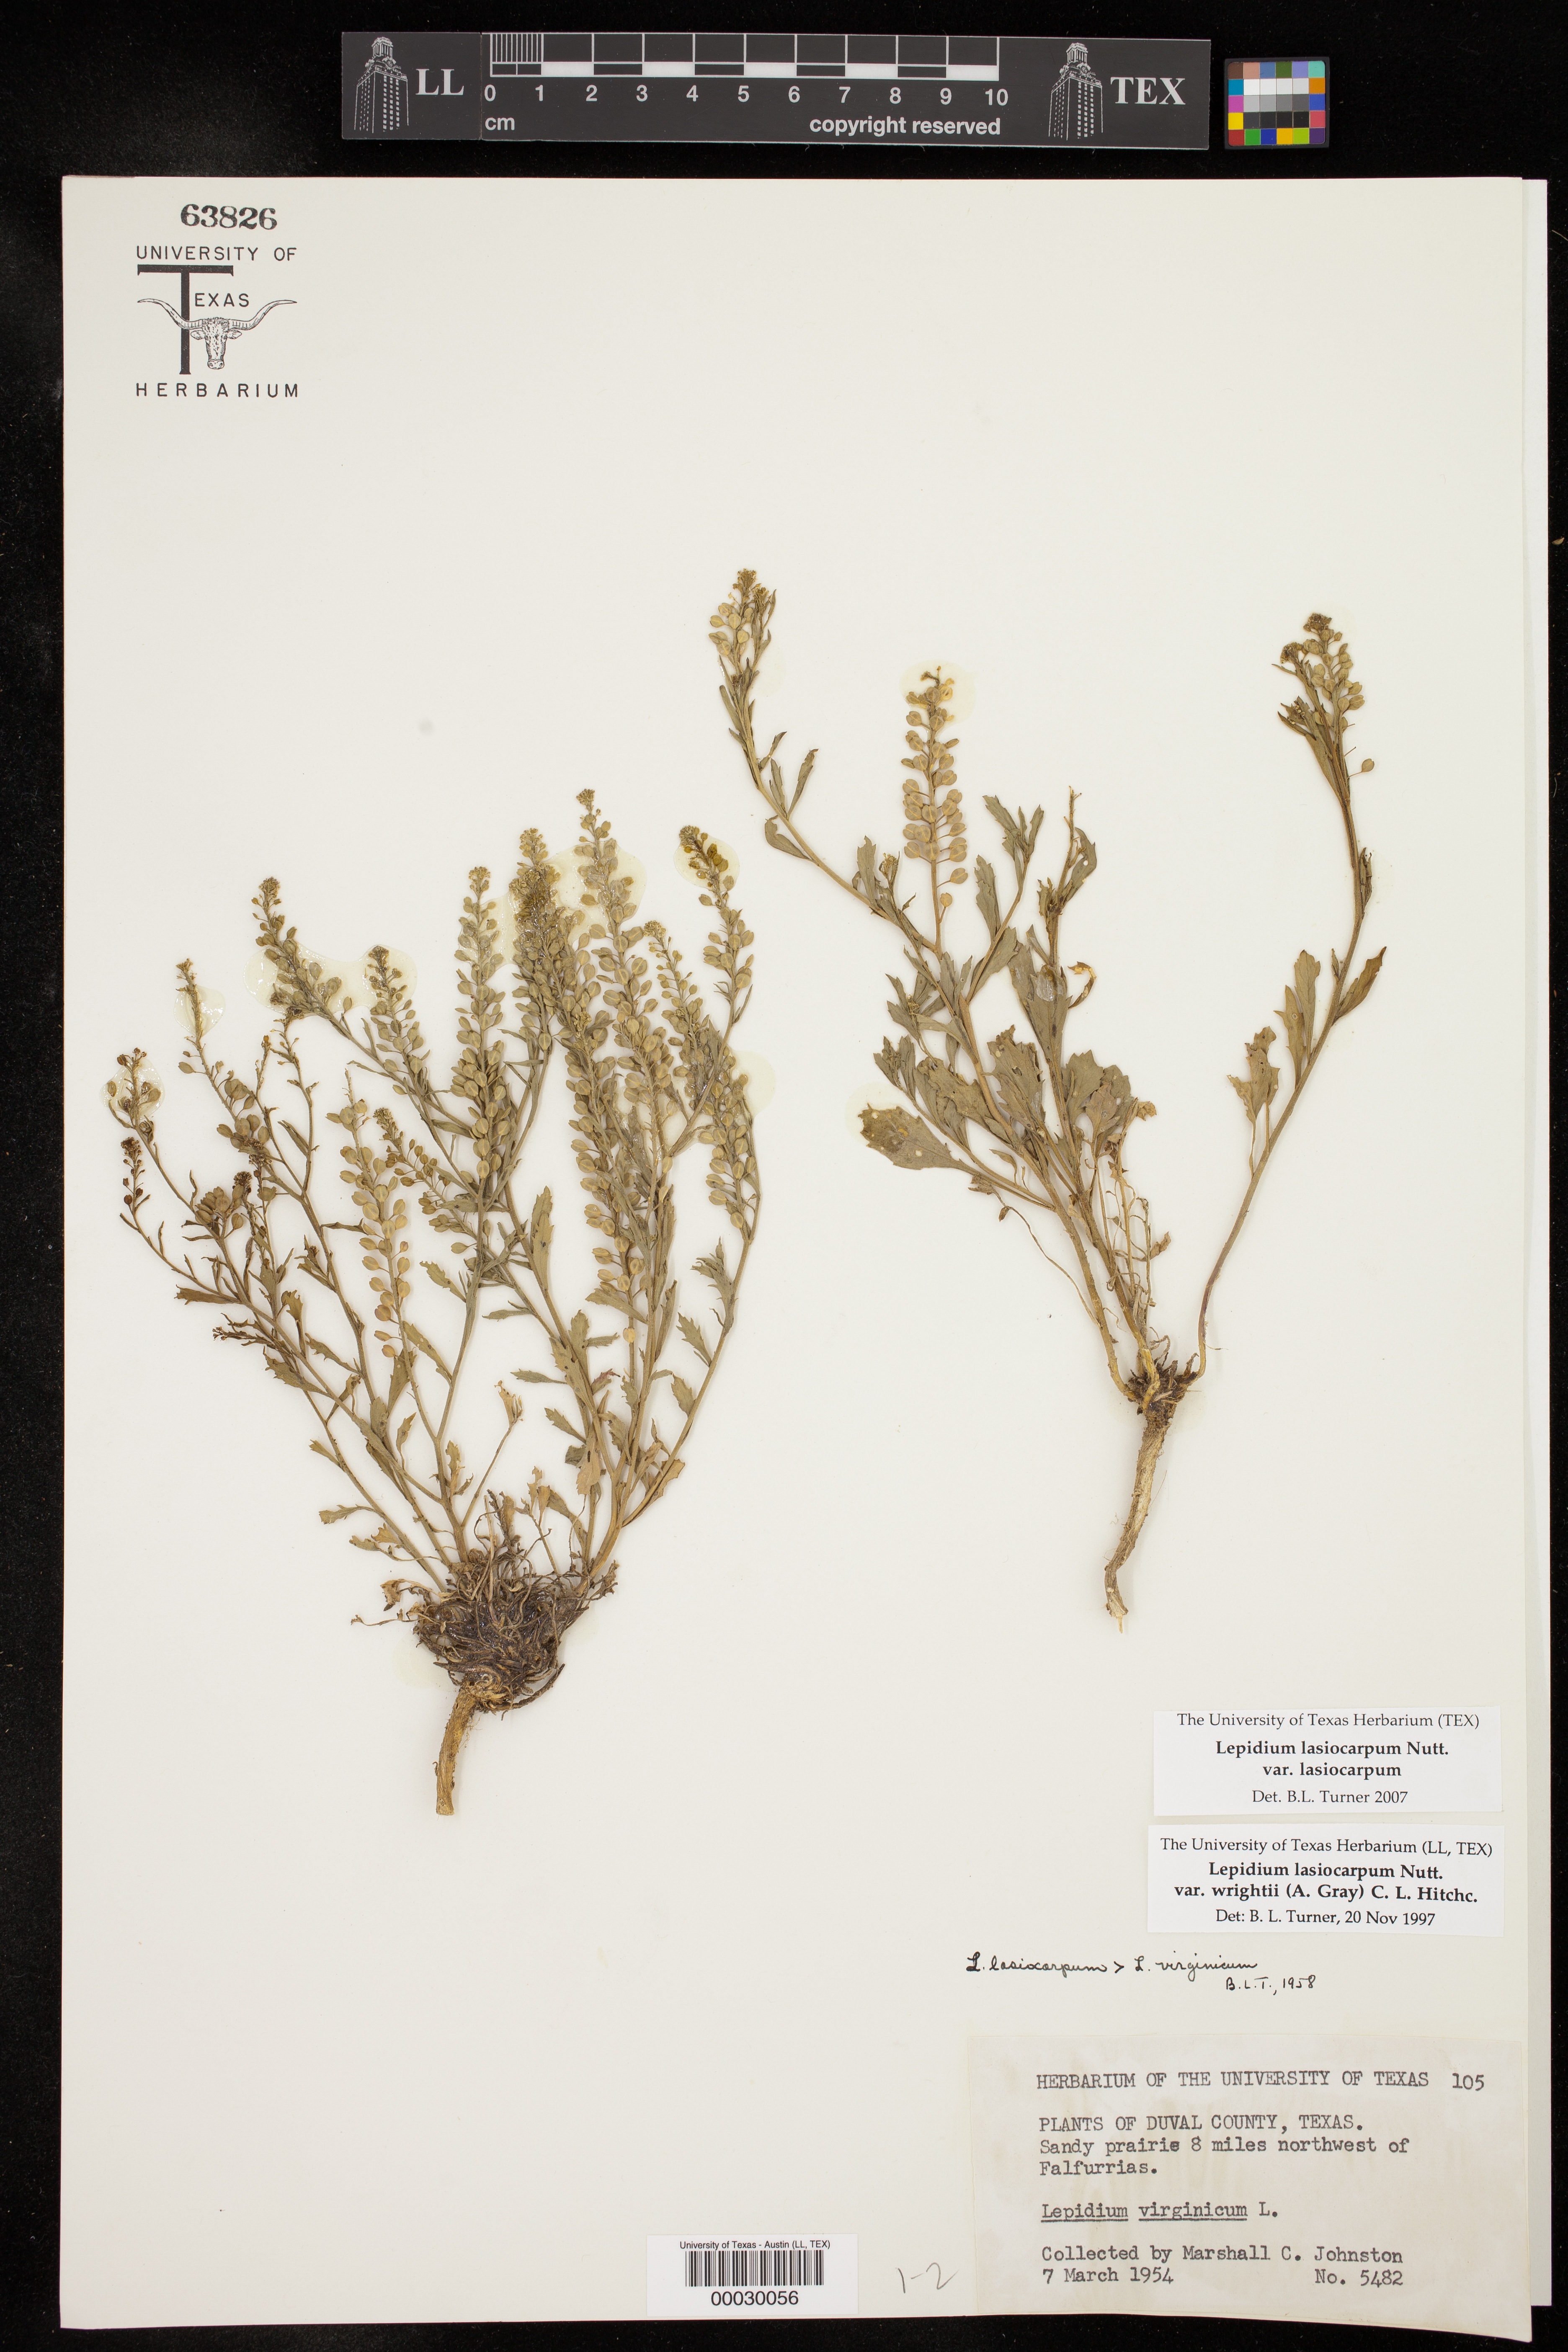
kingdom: Plantae
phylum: Tracheophyta
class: Magnoliopsida
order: Brassicales
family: Brassicaceae
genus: Lepidium
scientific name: Lepidium lasiocarpum
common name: Hairy-pod pepperwort
